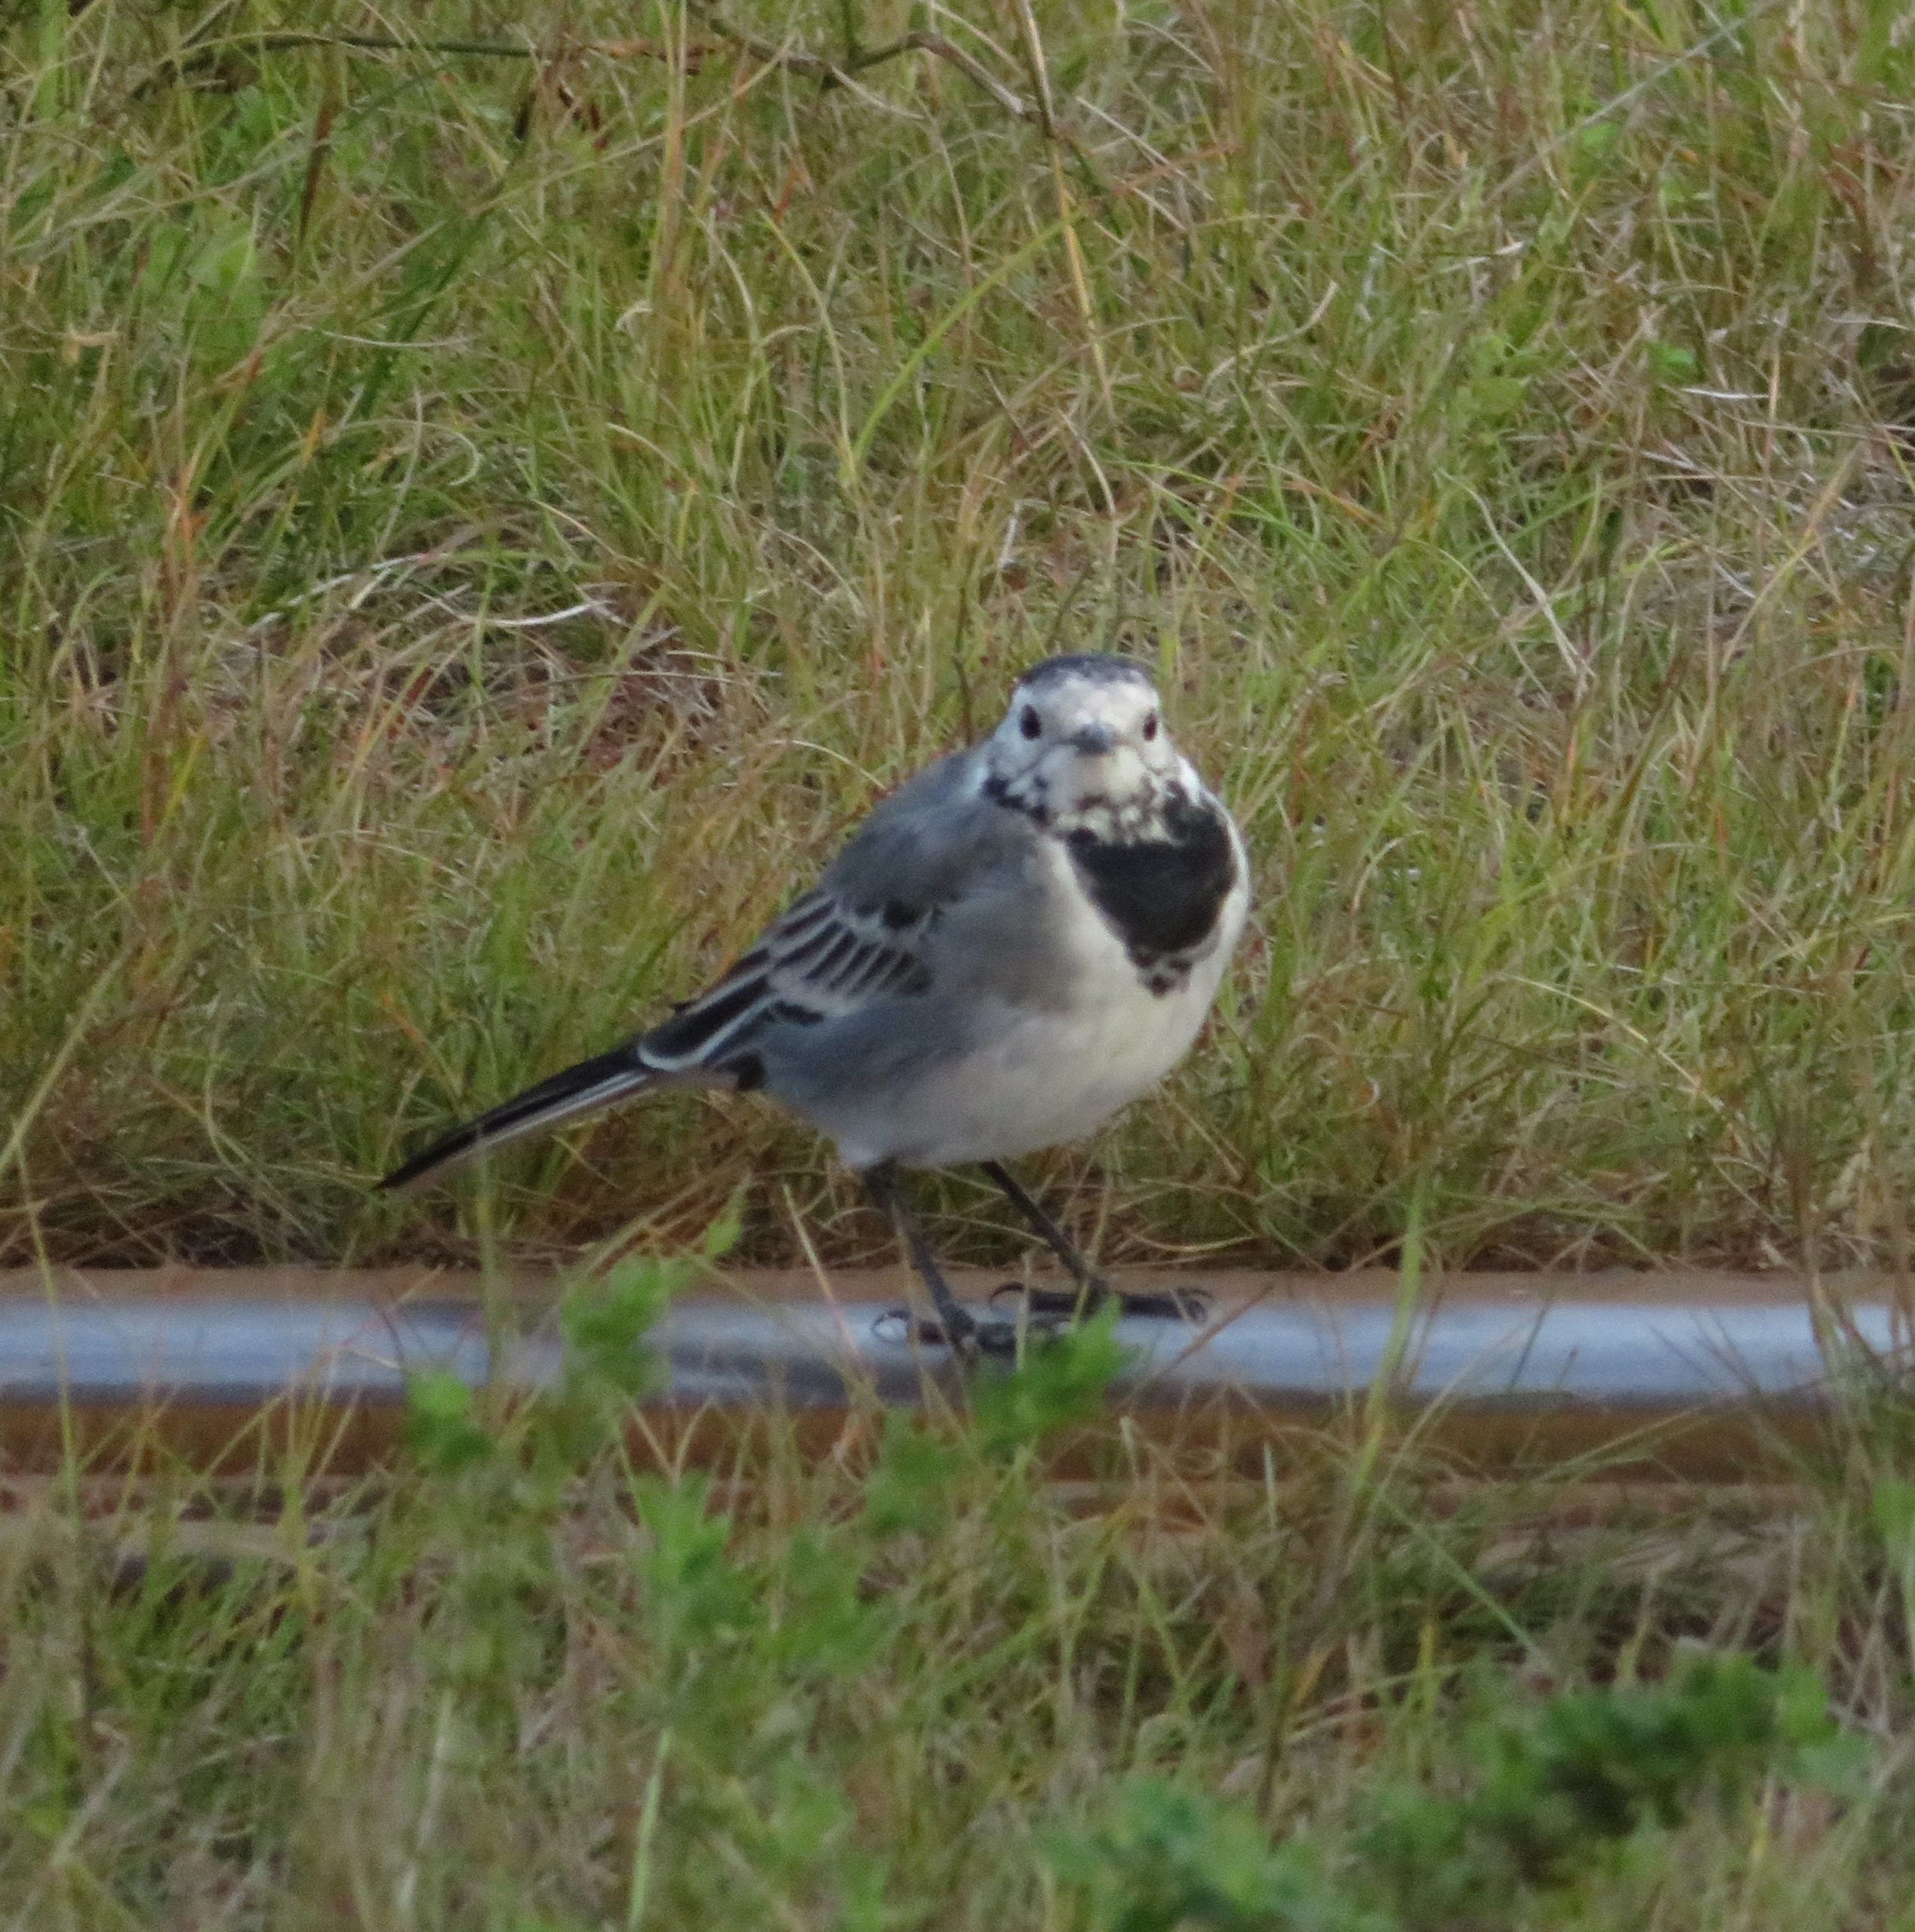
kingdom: Animalia
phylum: Chordata
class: Aves
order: Passeriformes
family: Motacillidae
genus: Motacilla
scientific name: Motacilla alba
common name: Hvid vipstjert
